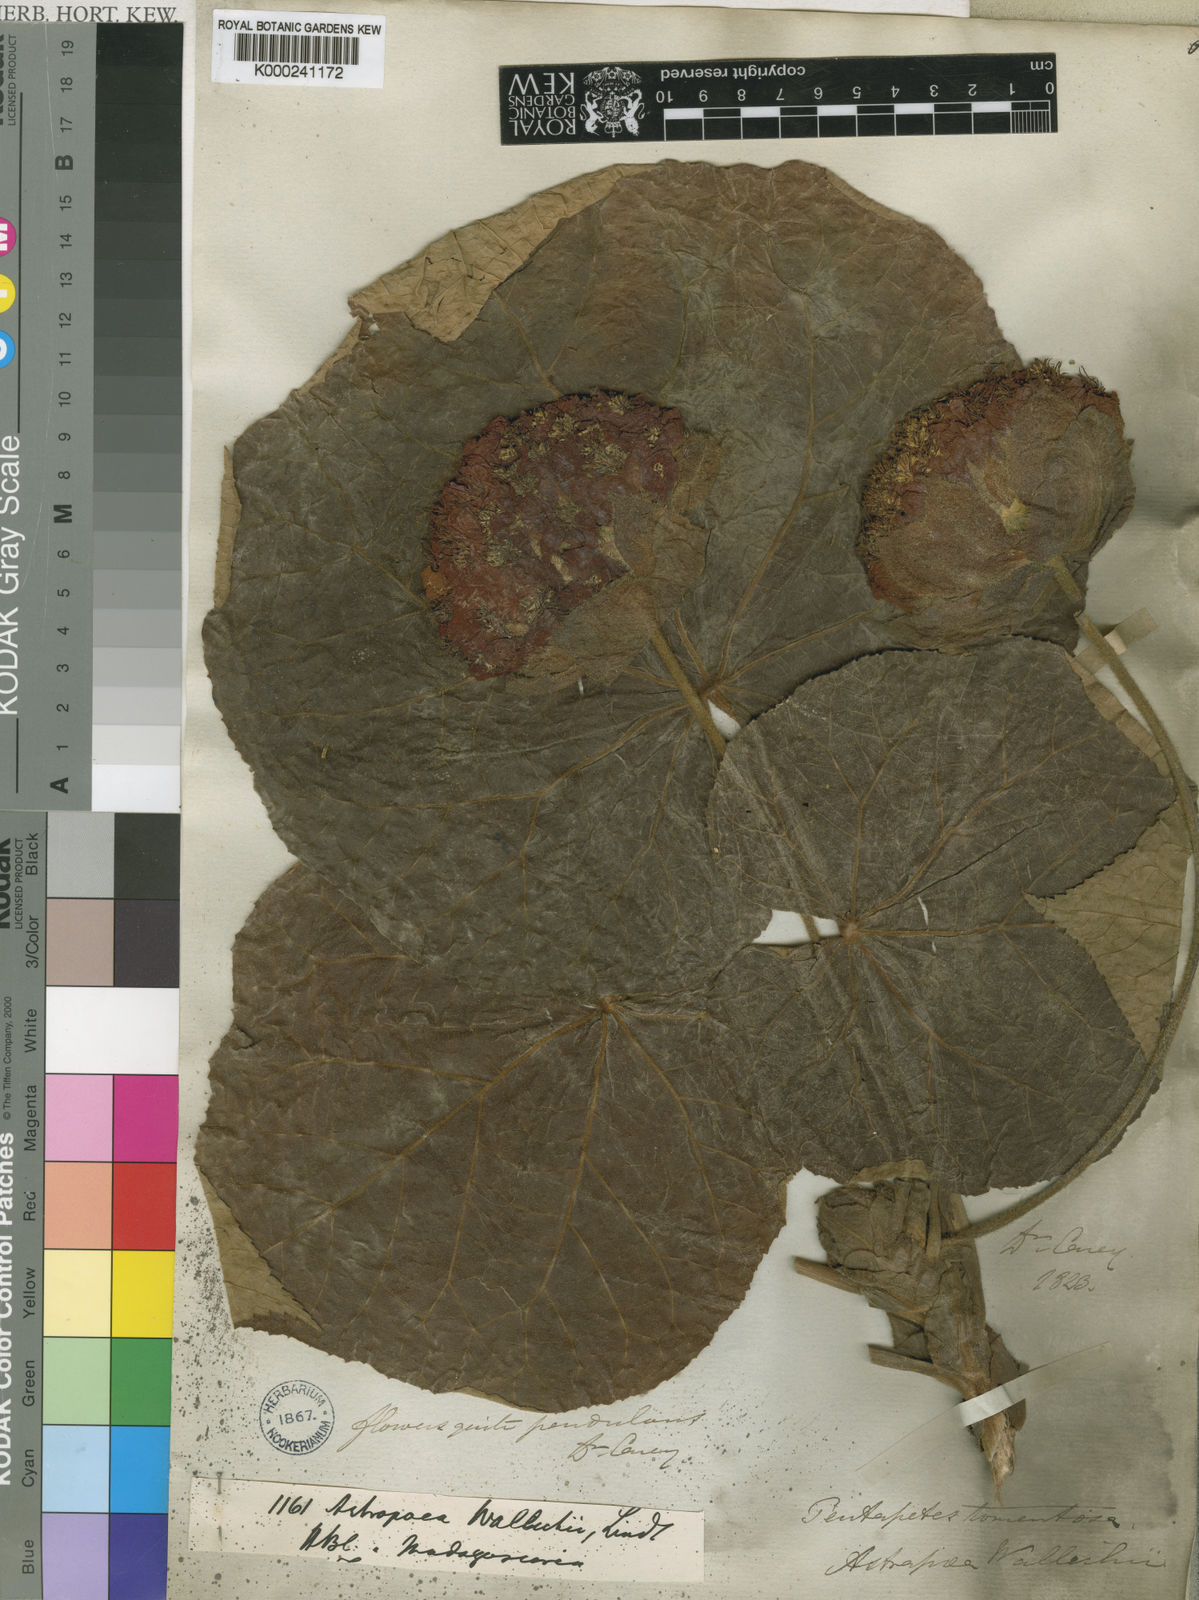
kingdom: Plantae
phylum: Tracheophyta
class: Magnoliopsida
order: Malvales
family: Malvaceae
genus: Dombeya
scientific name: Dombeya wallichii
